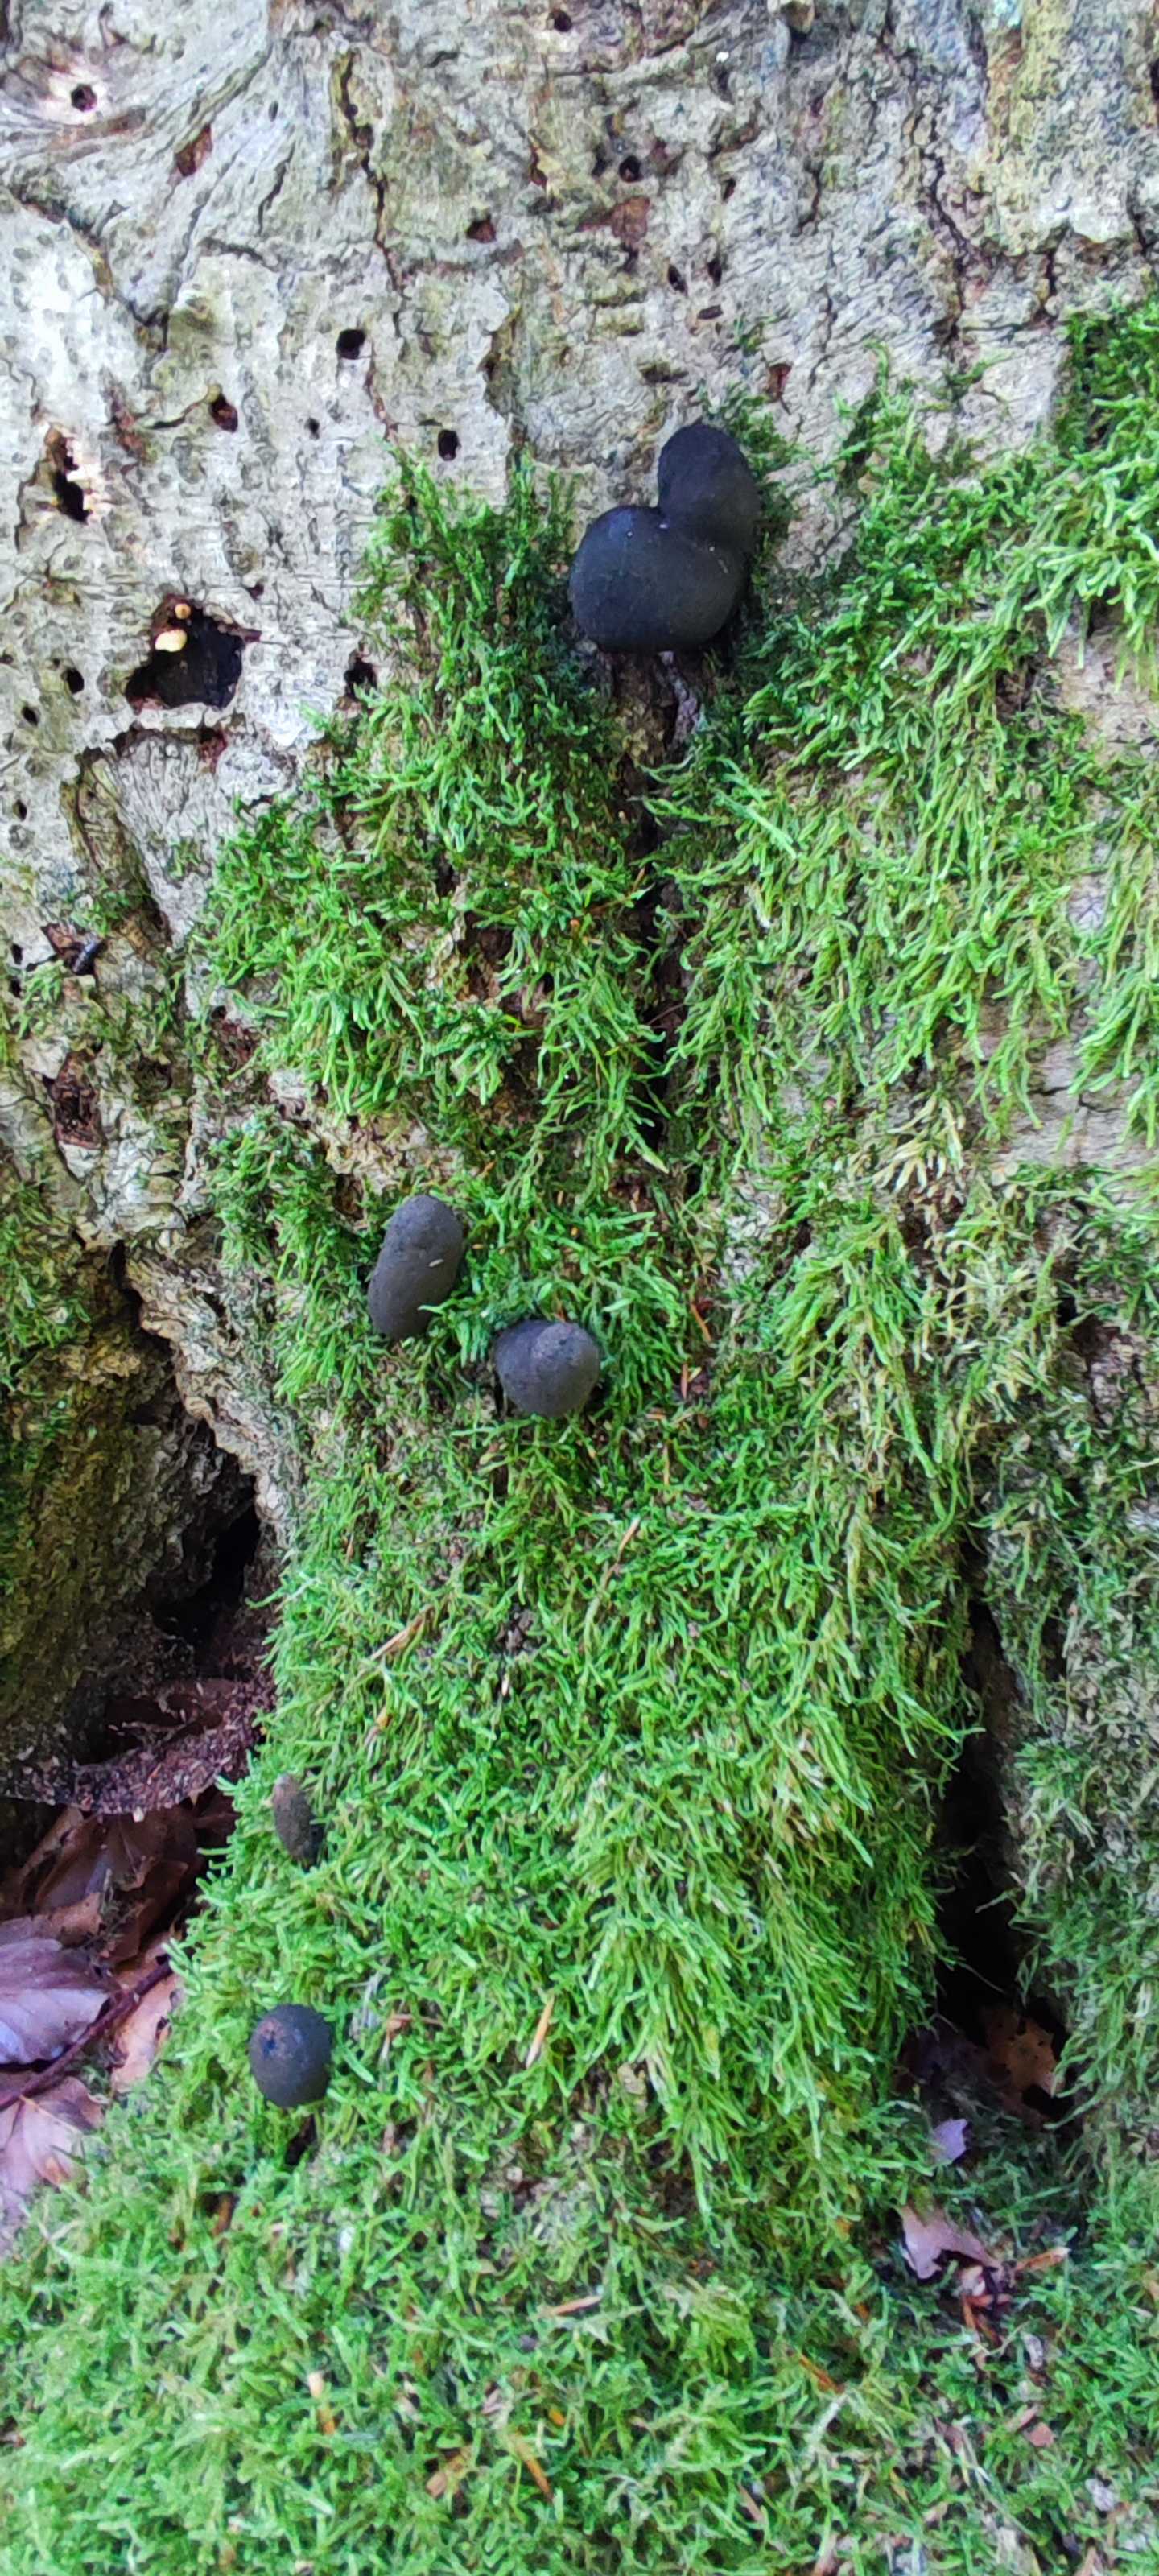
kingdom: Fungi
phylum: Ascomycota
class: Sordariomycetes
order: Xylariales
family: Xylariaceae
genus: Xylaria
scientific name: Xylaria polymorpha
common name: kølle-stødsvamp
